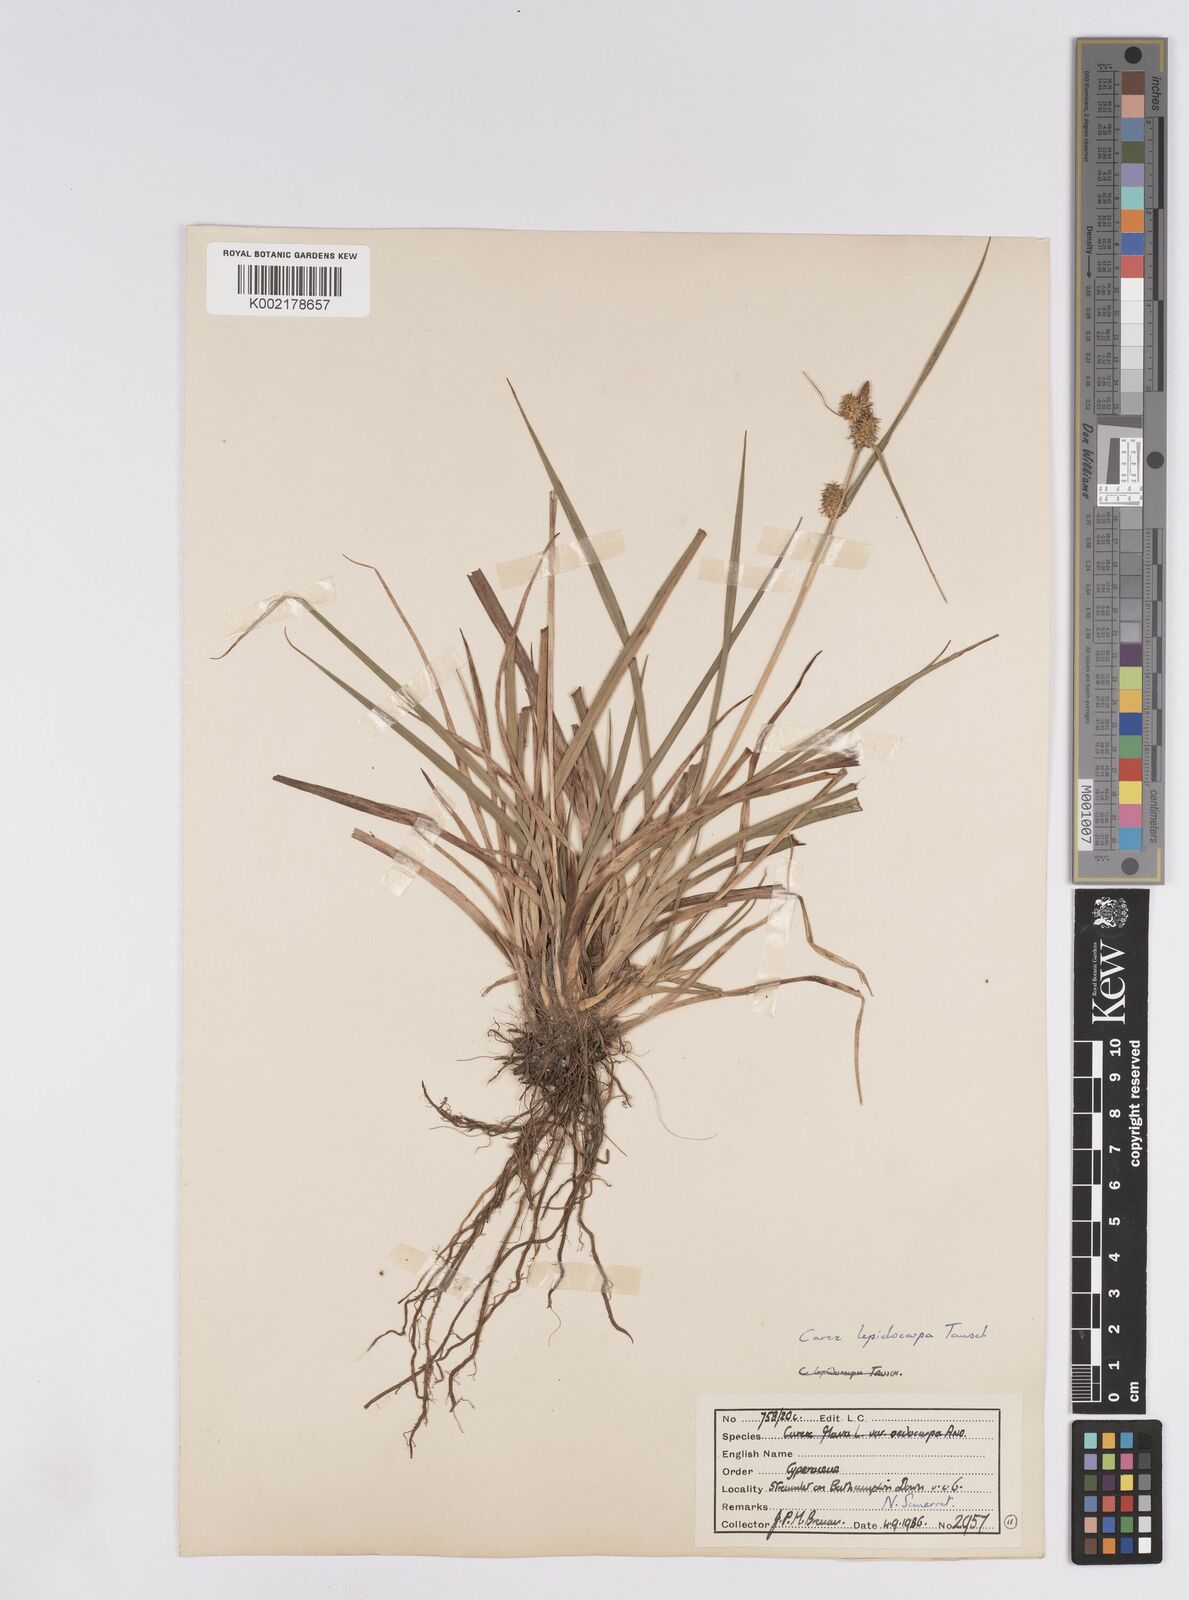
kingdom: Plantae
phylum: Tracheophyta
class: Liliopsida
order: Poales
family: Cyperaceae
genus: Carex
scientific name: Carex lepidocarpa
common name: Long-stalked yellow-sedge
